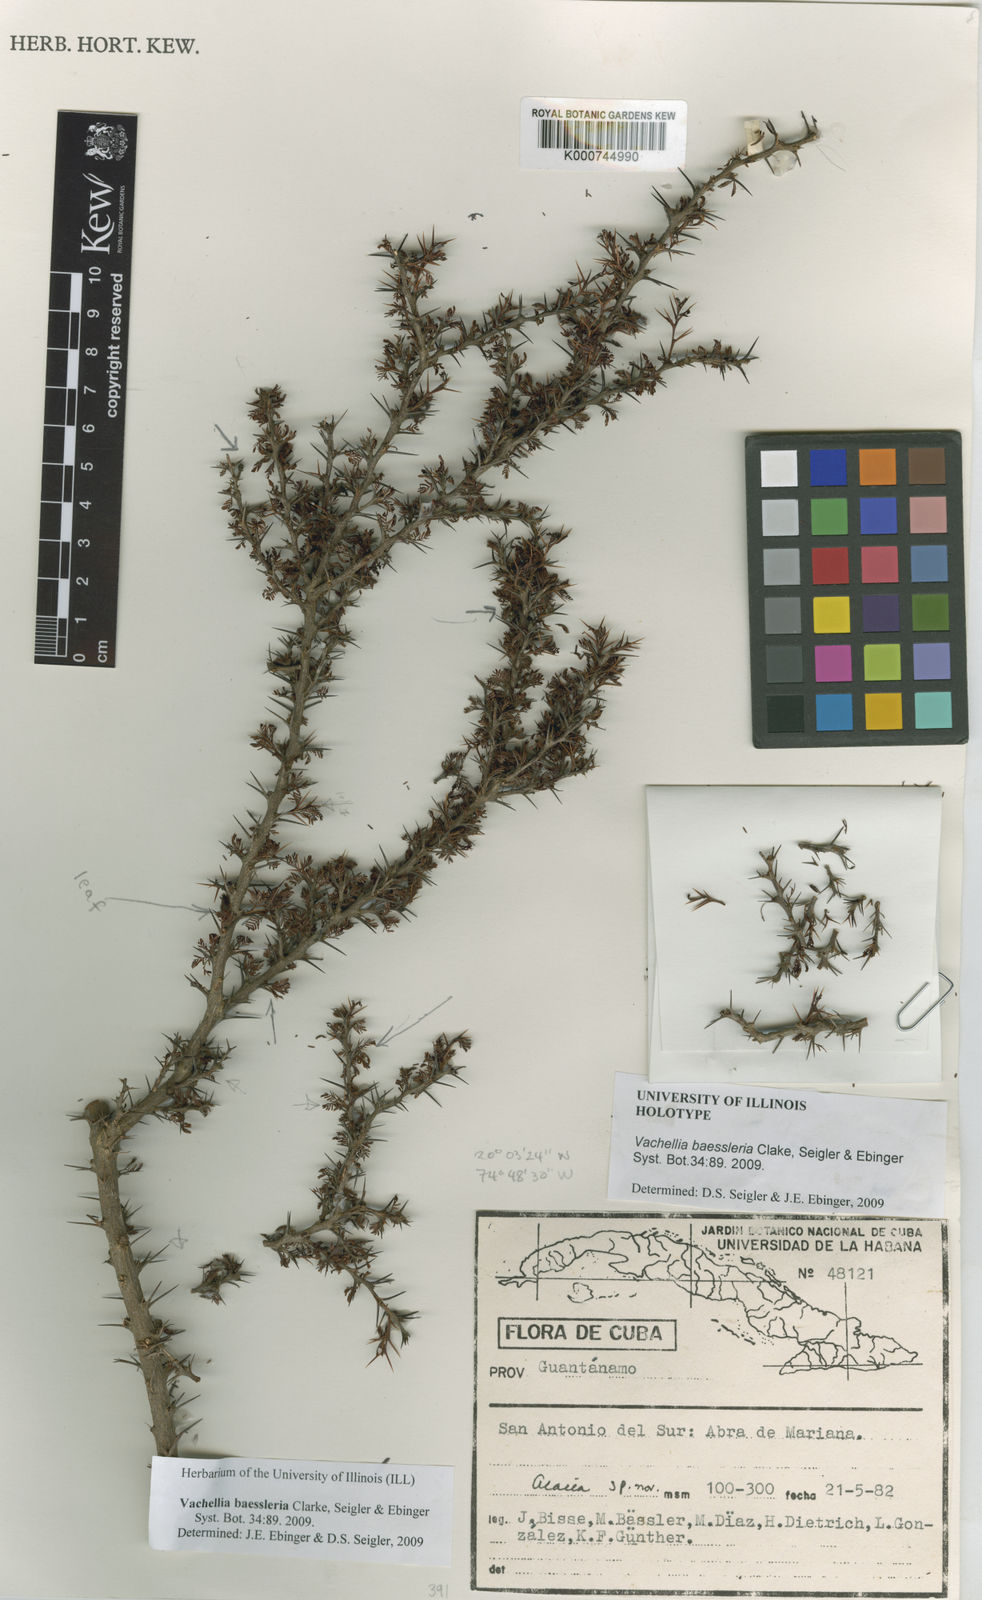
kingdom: Plantae
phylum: Tracheophyta
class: Magnoliopsida
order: Fabales
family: Fabaceae
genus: Acacia
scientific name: Acacia
